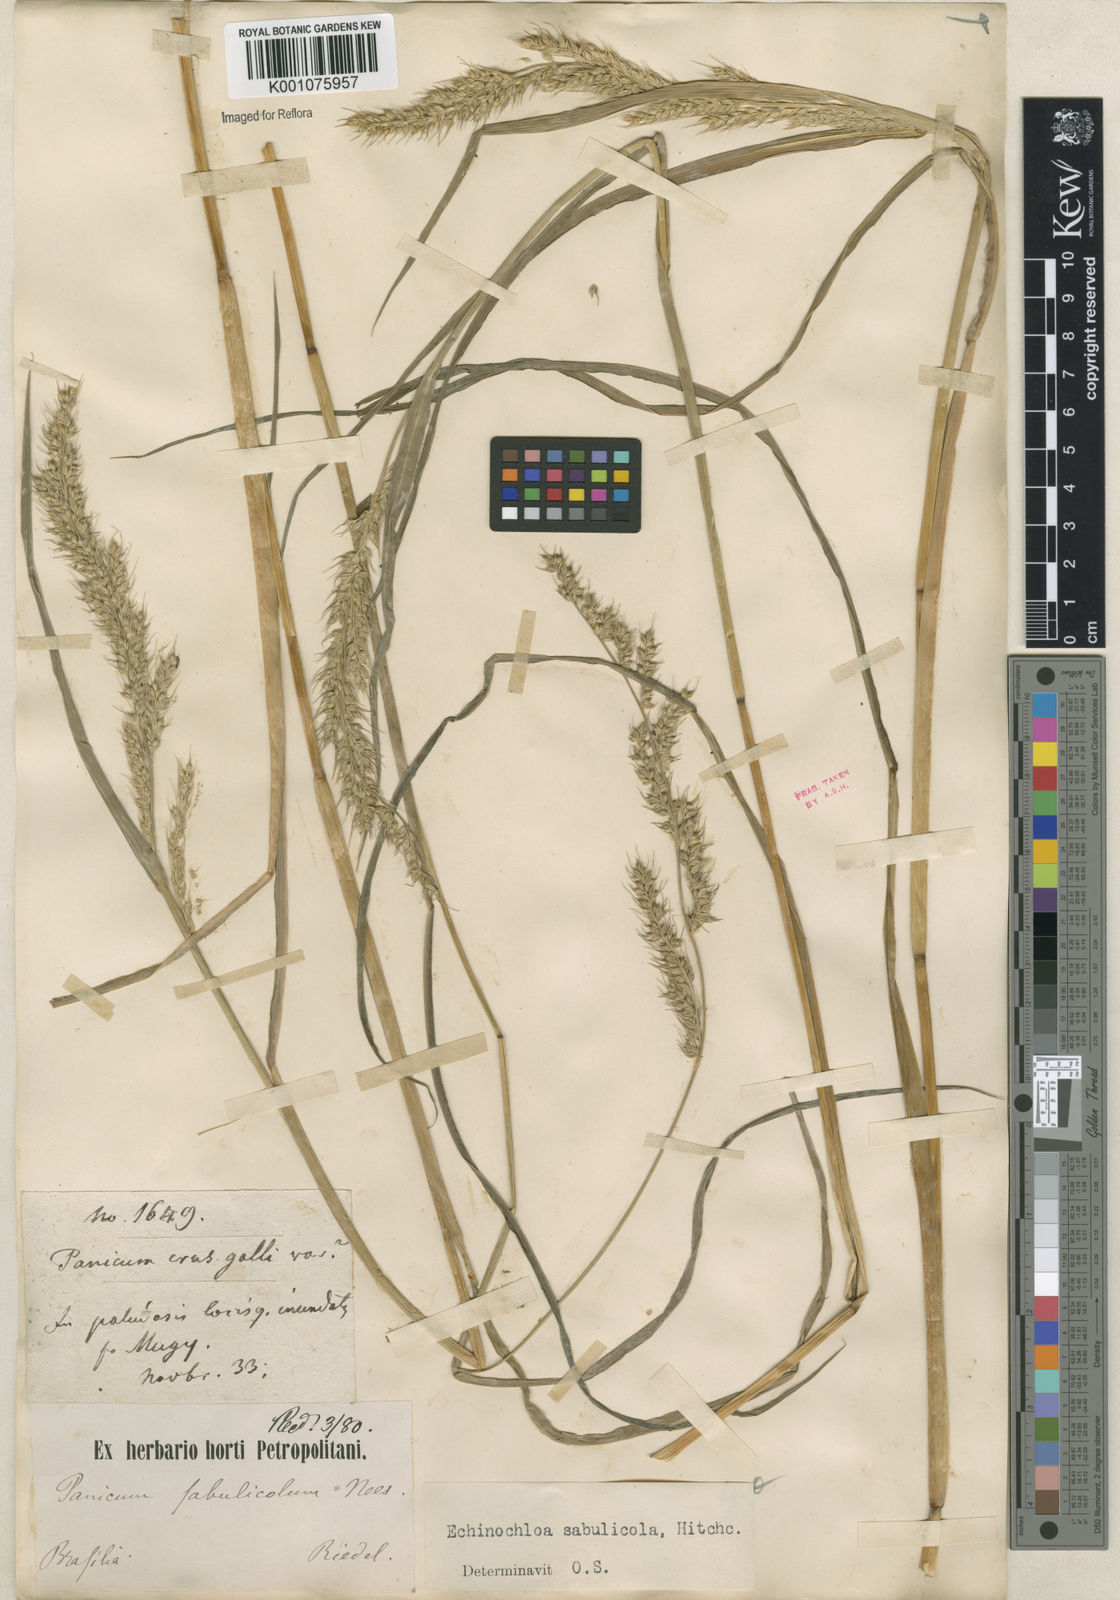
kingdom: Plantae
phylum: Tracheophyta
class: Liliopsida
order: Poales
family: Poaceae
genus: Echinochloa
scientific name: Echinochloa crus-pavonis
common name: Gulf cockspur grass
